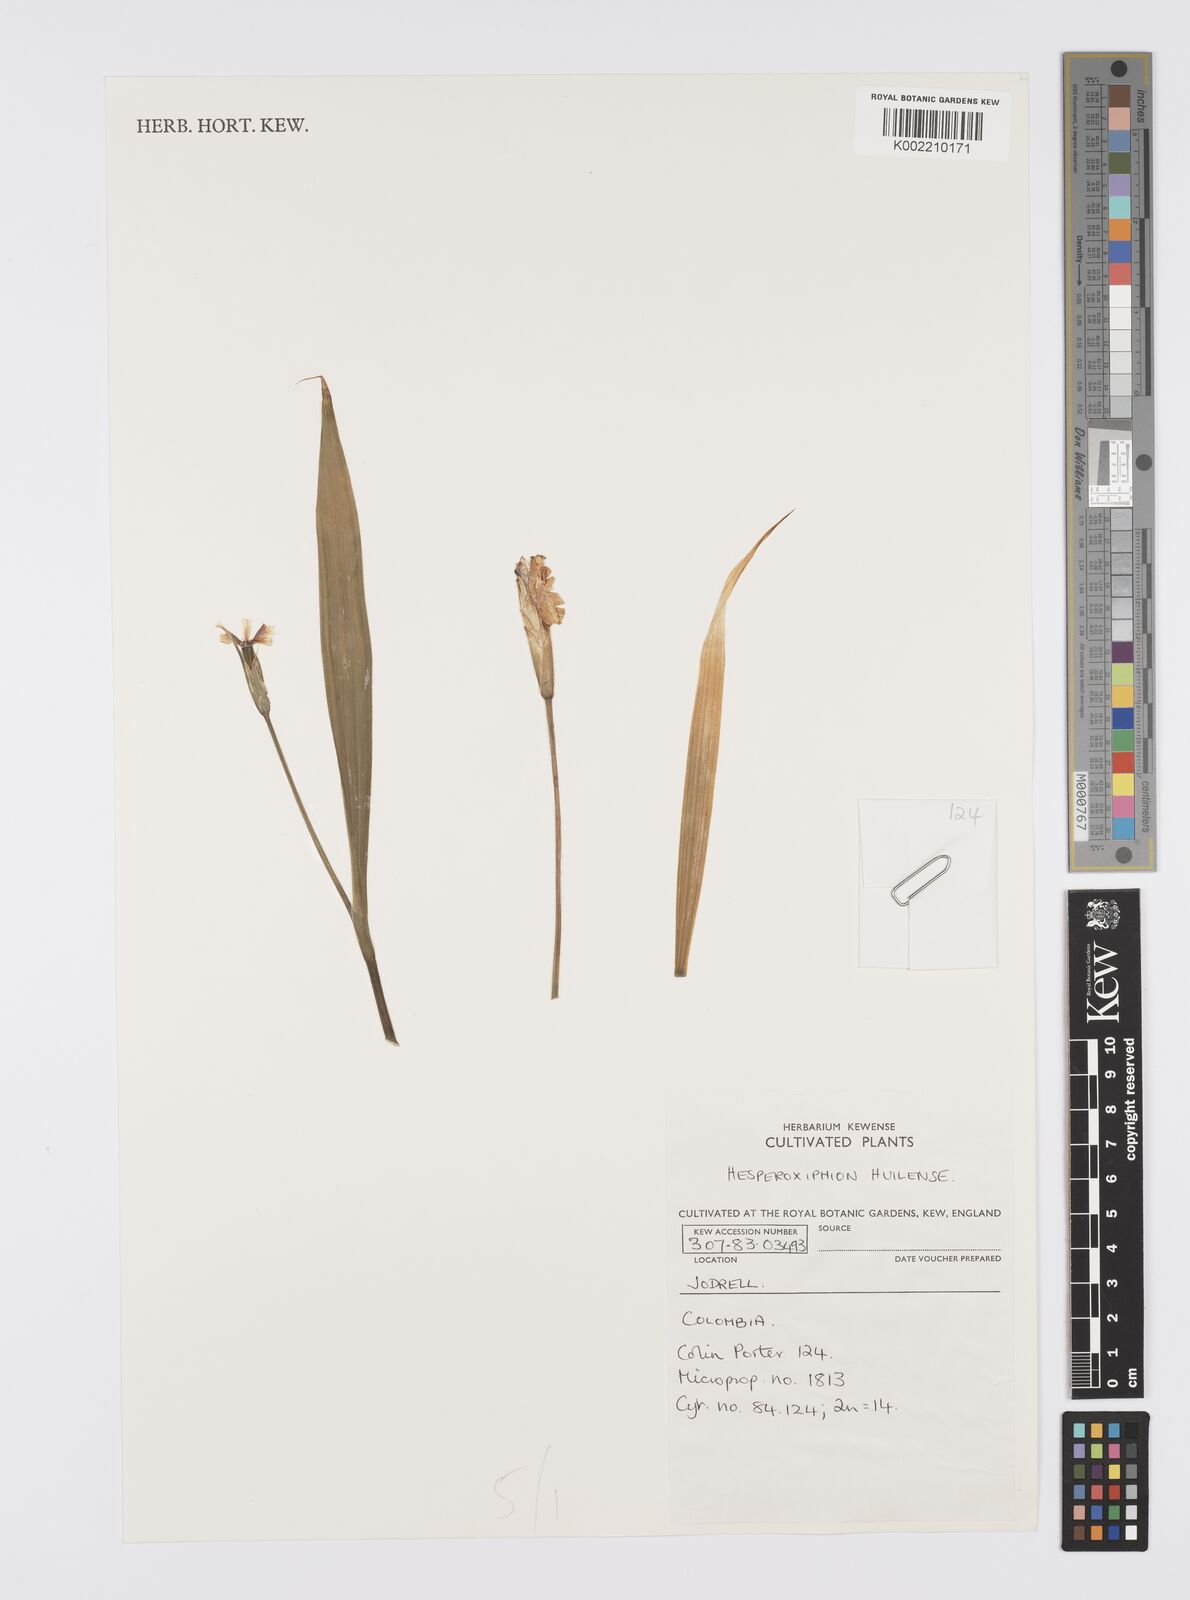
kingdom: Plantae
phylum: Tracheophyta
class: Liliopsida
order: Asparagales
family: Iridaceae
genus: Hesperoxiphion
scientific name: Hesperoxiphion huilense
